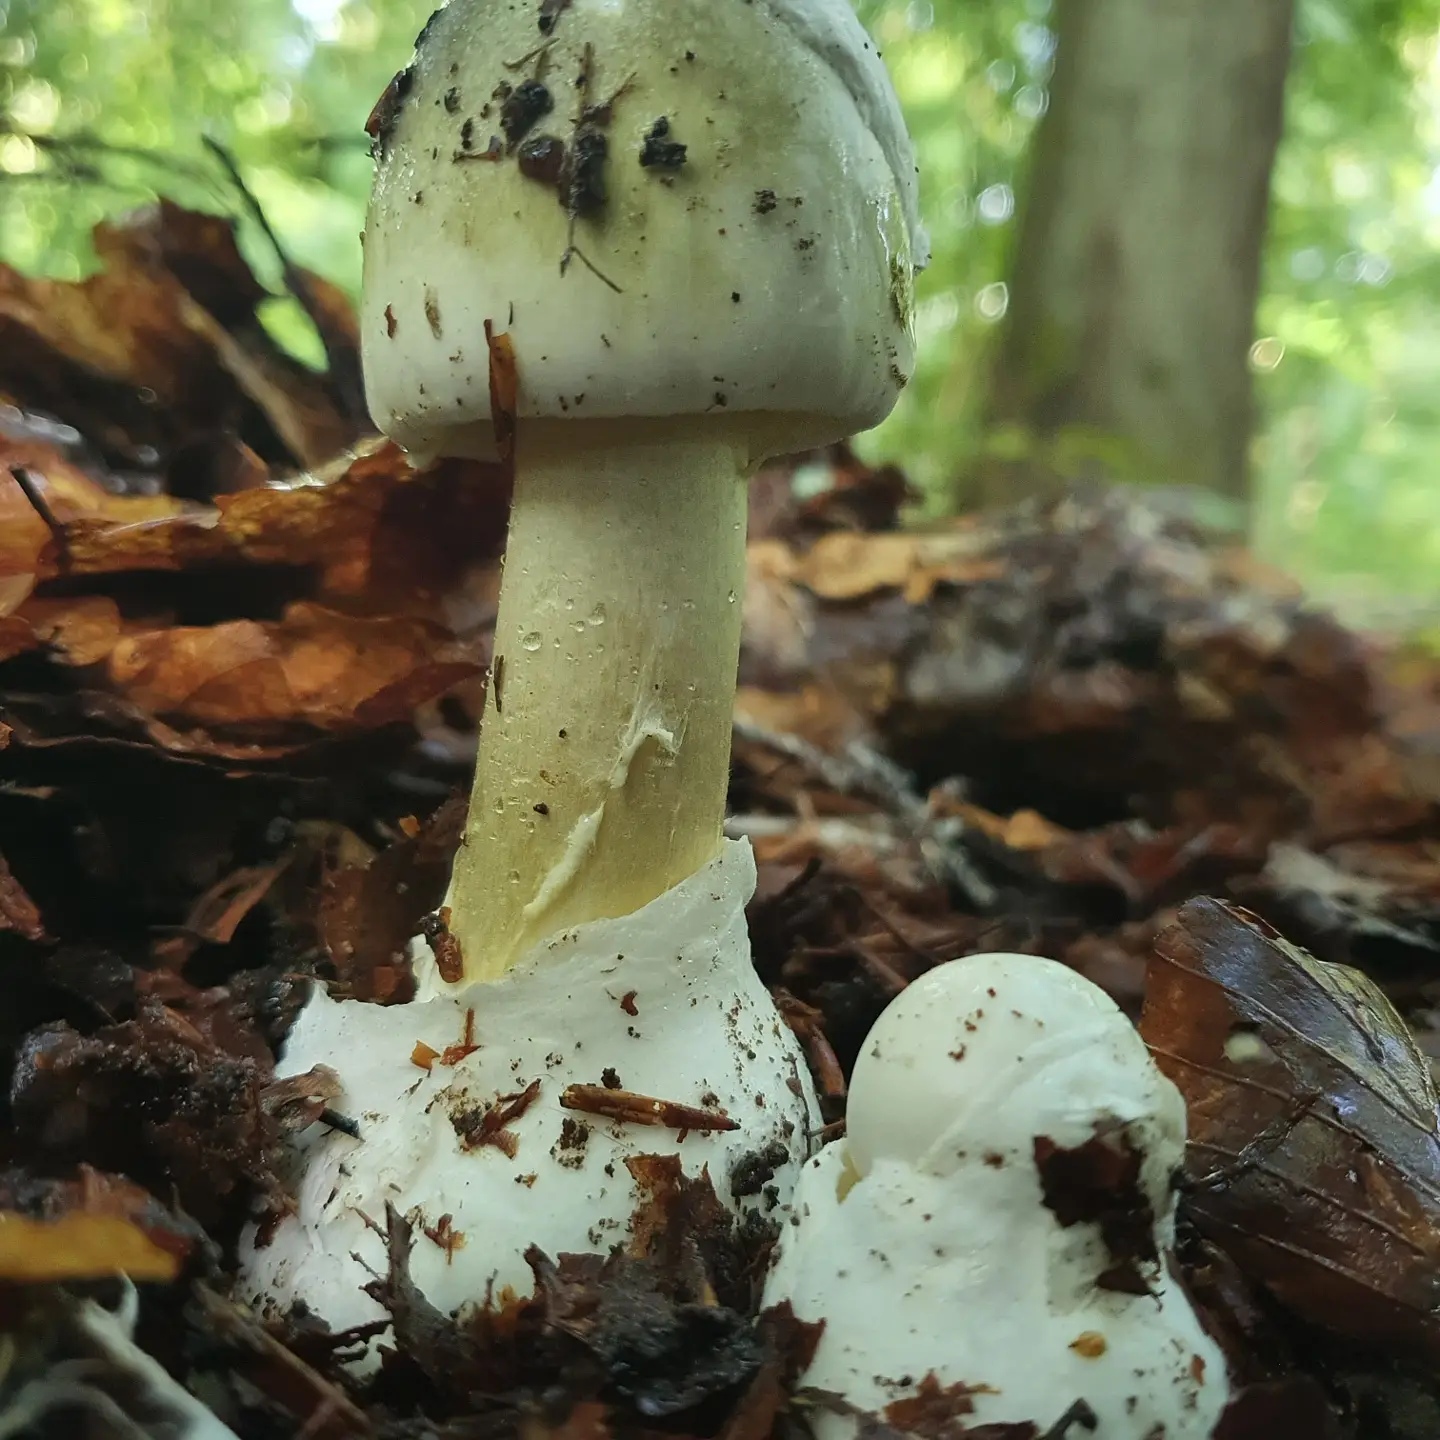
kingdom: Fungi
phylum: Basidiomycota
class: Agaricomycetes
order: Agaricales
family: Amanitaceae
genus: Amanita
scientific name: Amanita phalloides
